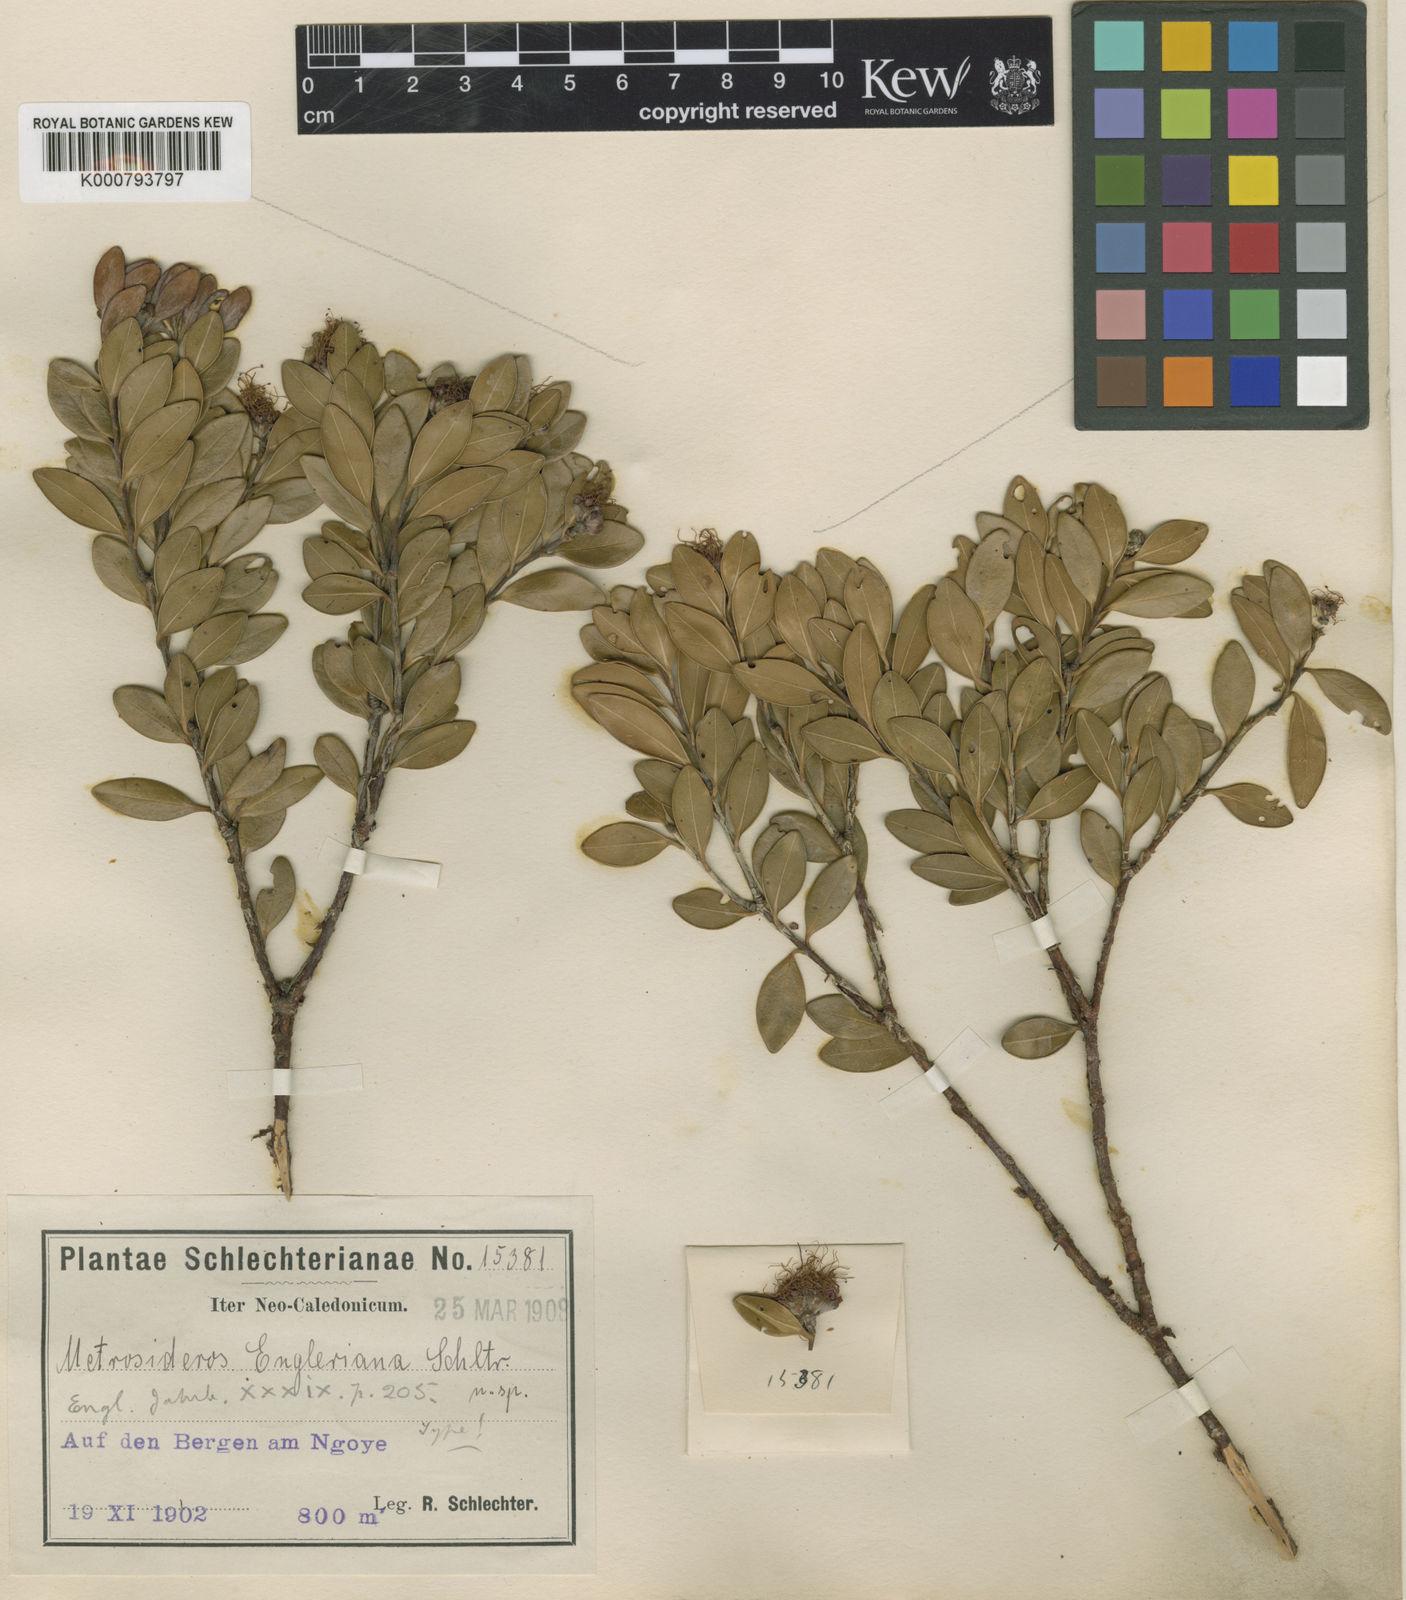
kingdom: Plantae
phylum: Tracheophyta
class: Magnoliopsida
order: Myrtales
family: Myrtaceae
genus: Metrosideros
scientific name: Metrosideros engleriana
